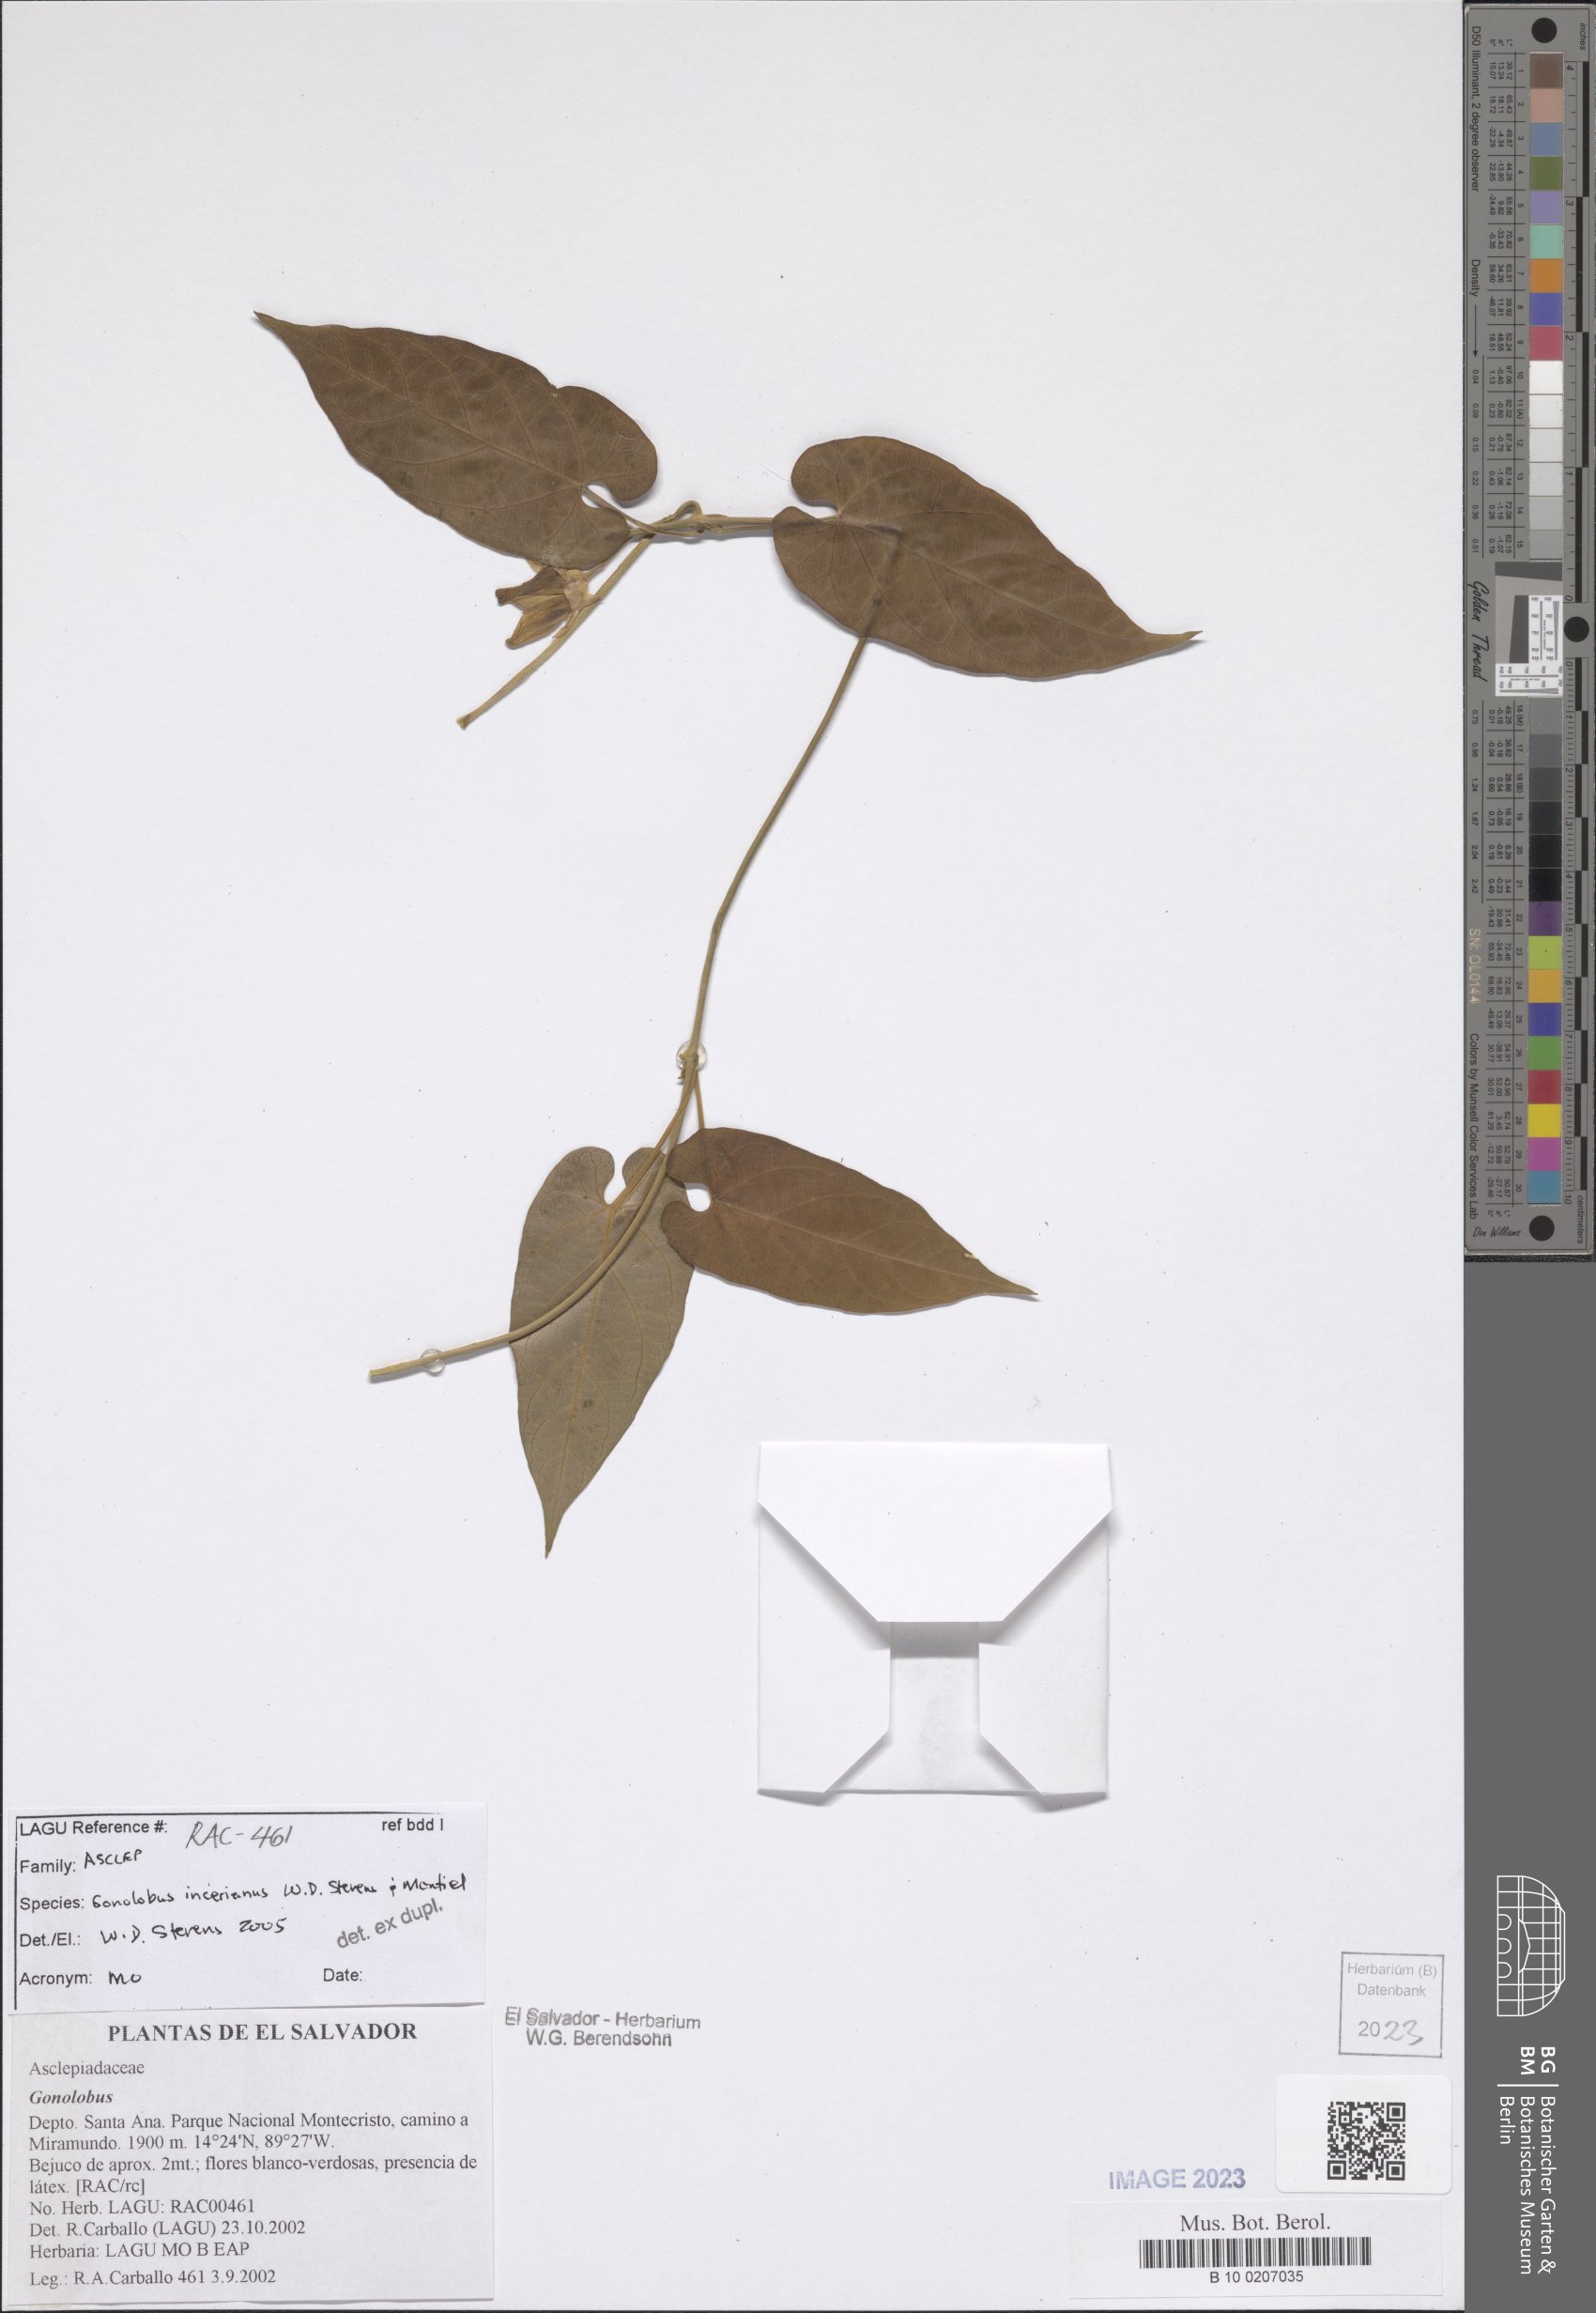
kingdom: Plantae
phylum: Tracheophyta
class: Magnoliopsida
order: Gentianales
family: Apocynaceae
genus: Gonolobus
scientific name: Gonolobus incerianus
